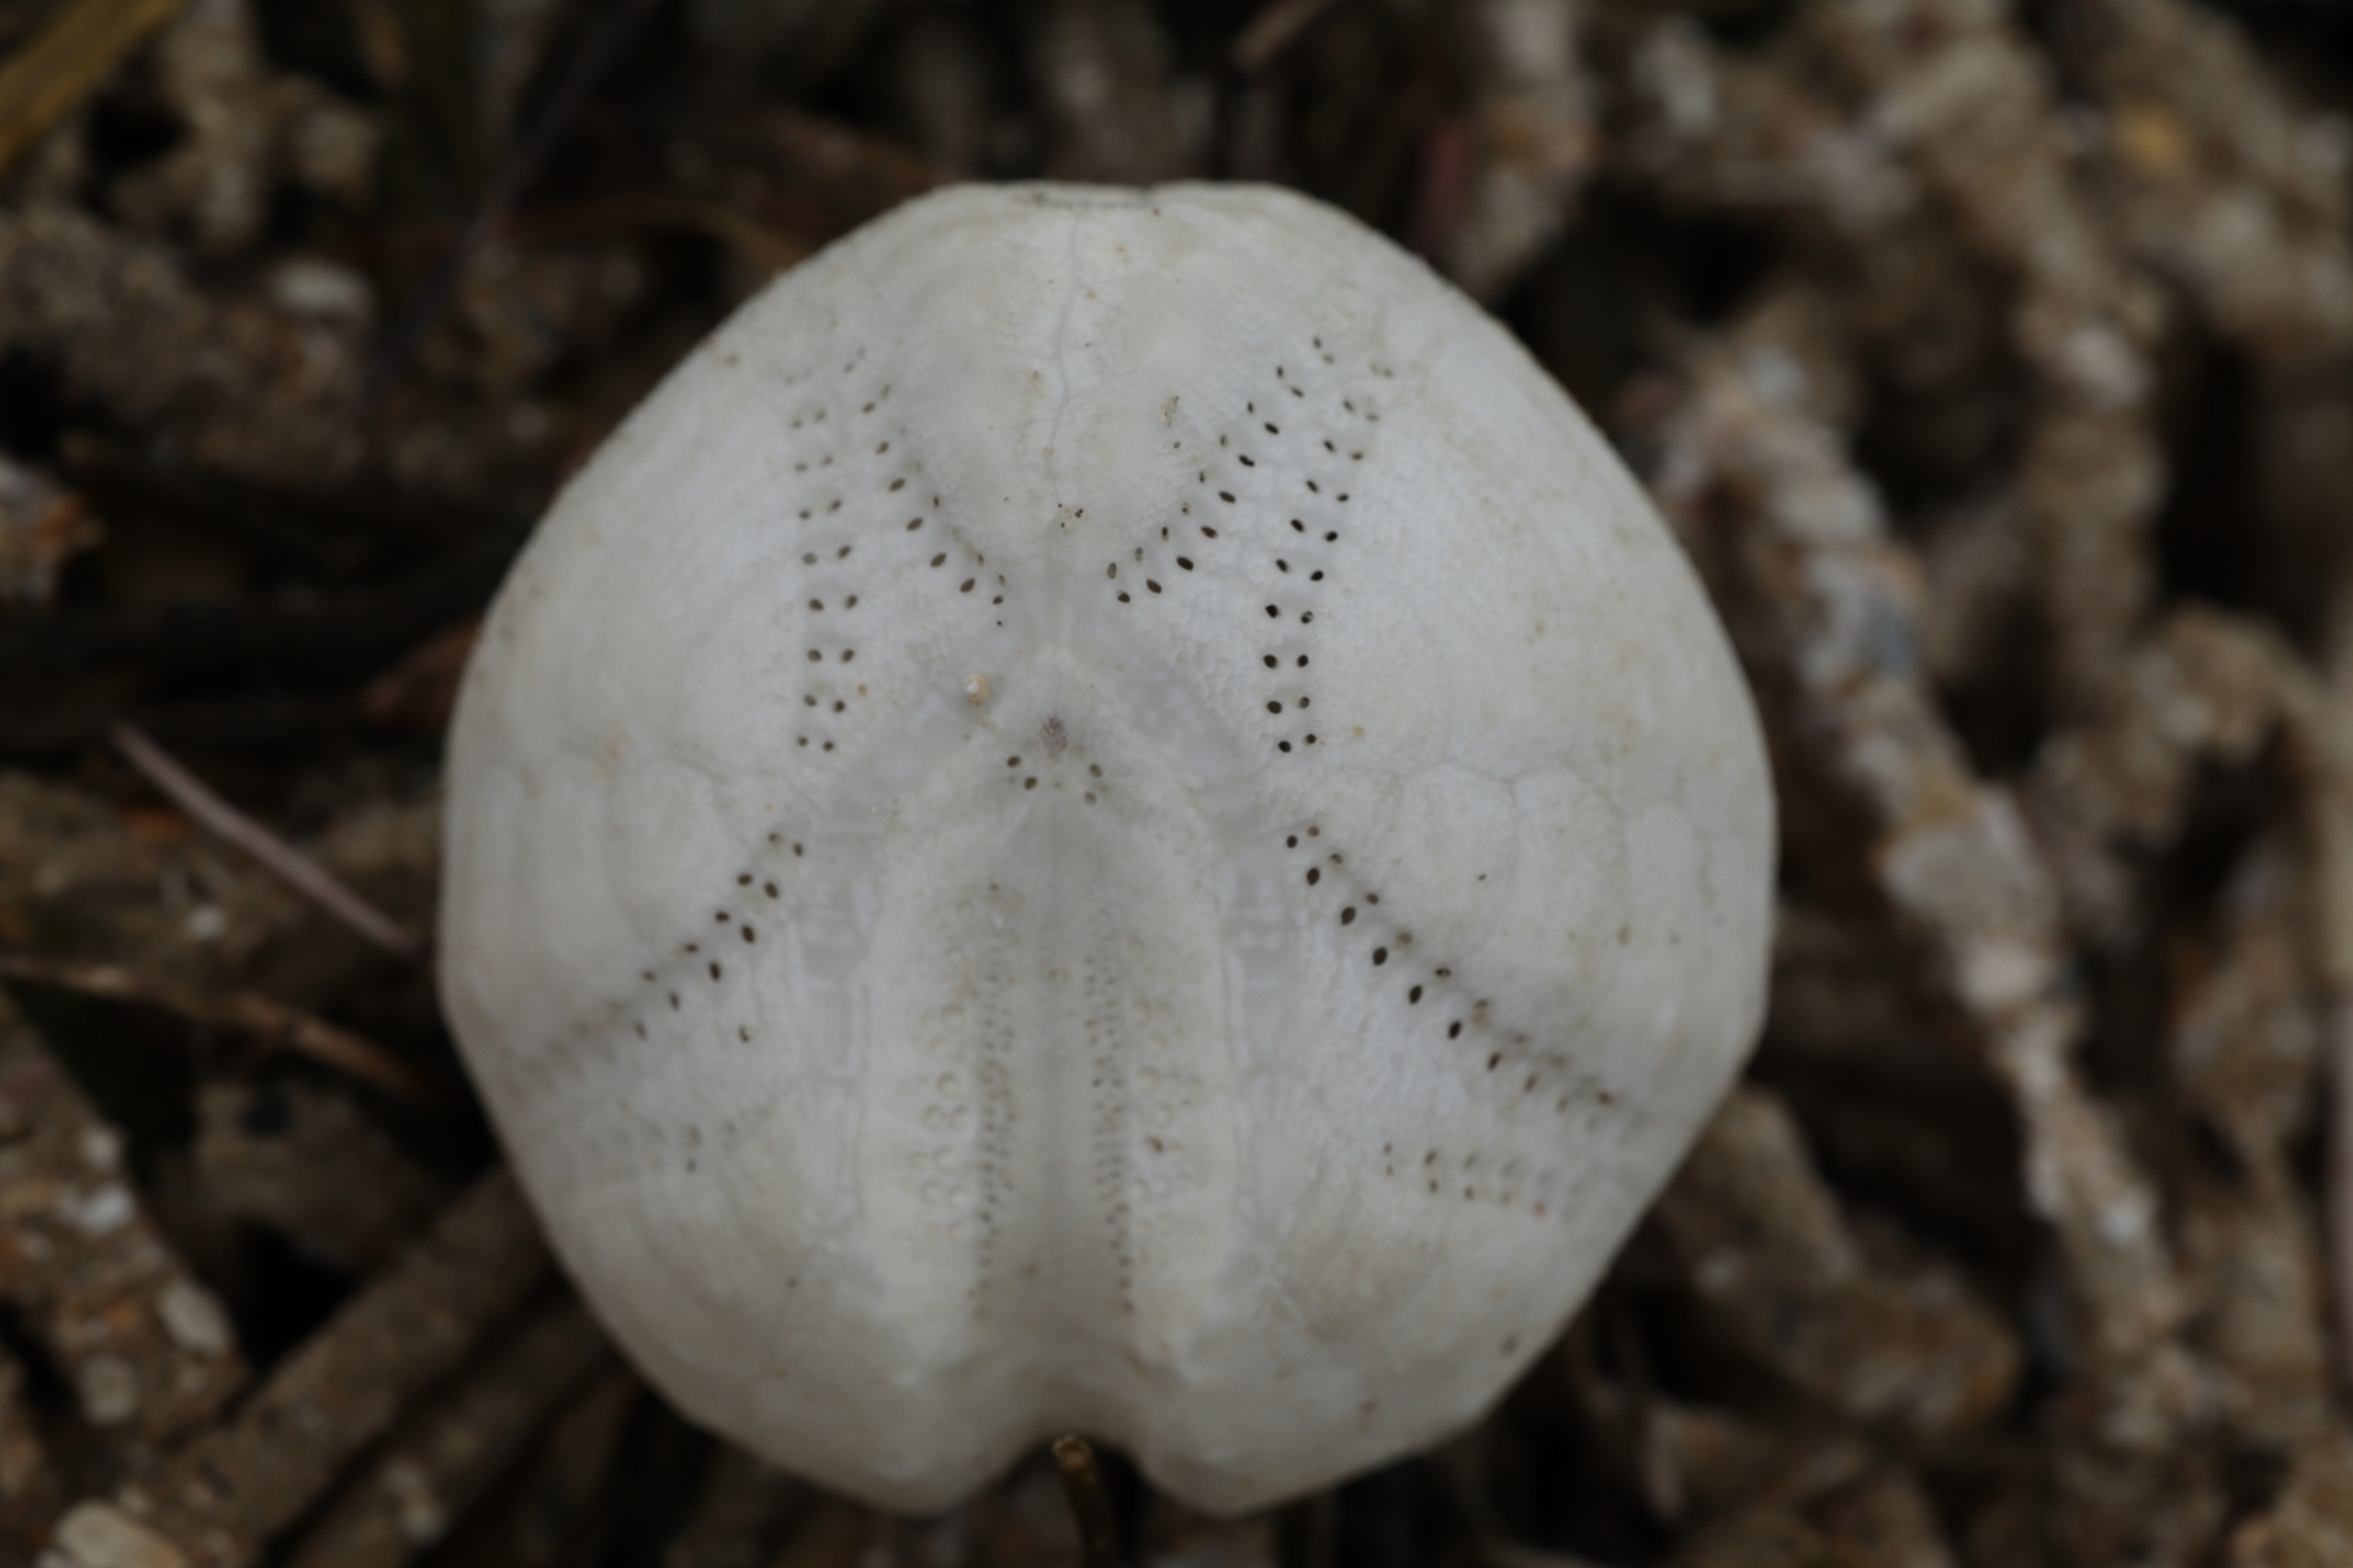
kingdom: Animalia
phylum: Echinodermata
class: Echinoidea
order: Spatangoida
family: Loveniidae
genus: Echinocardium
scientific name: Echinocardium cordatum
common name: Almindelig sømus
